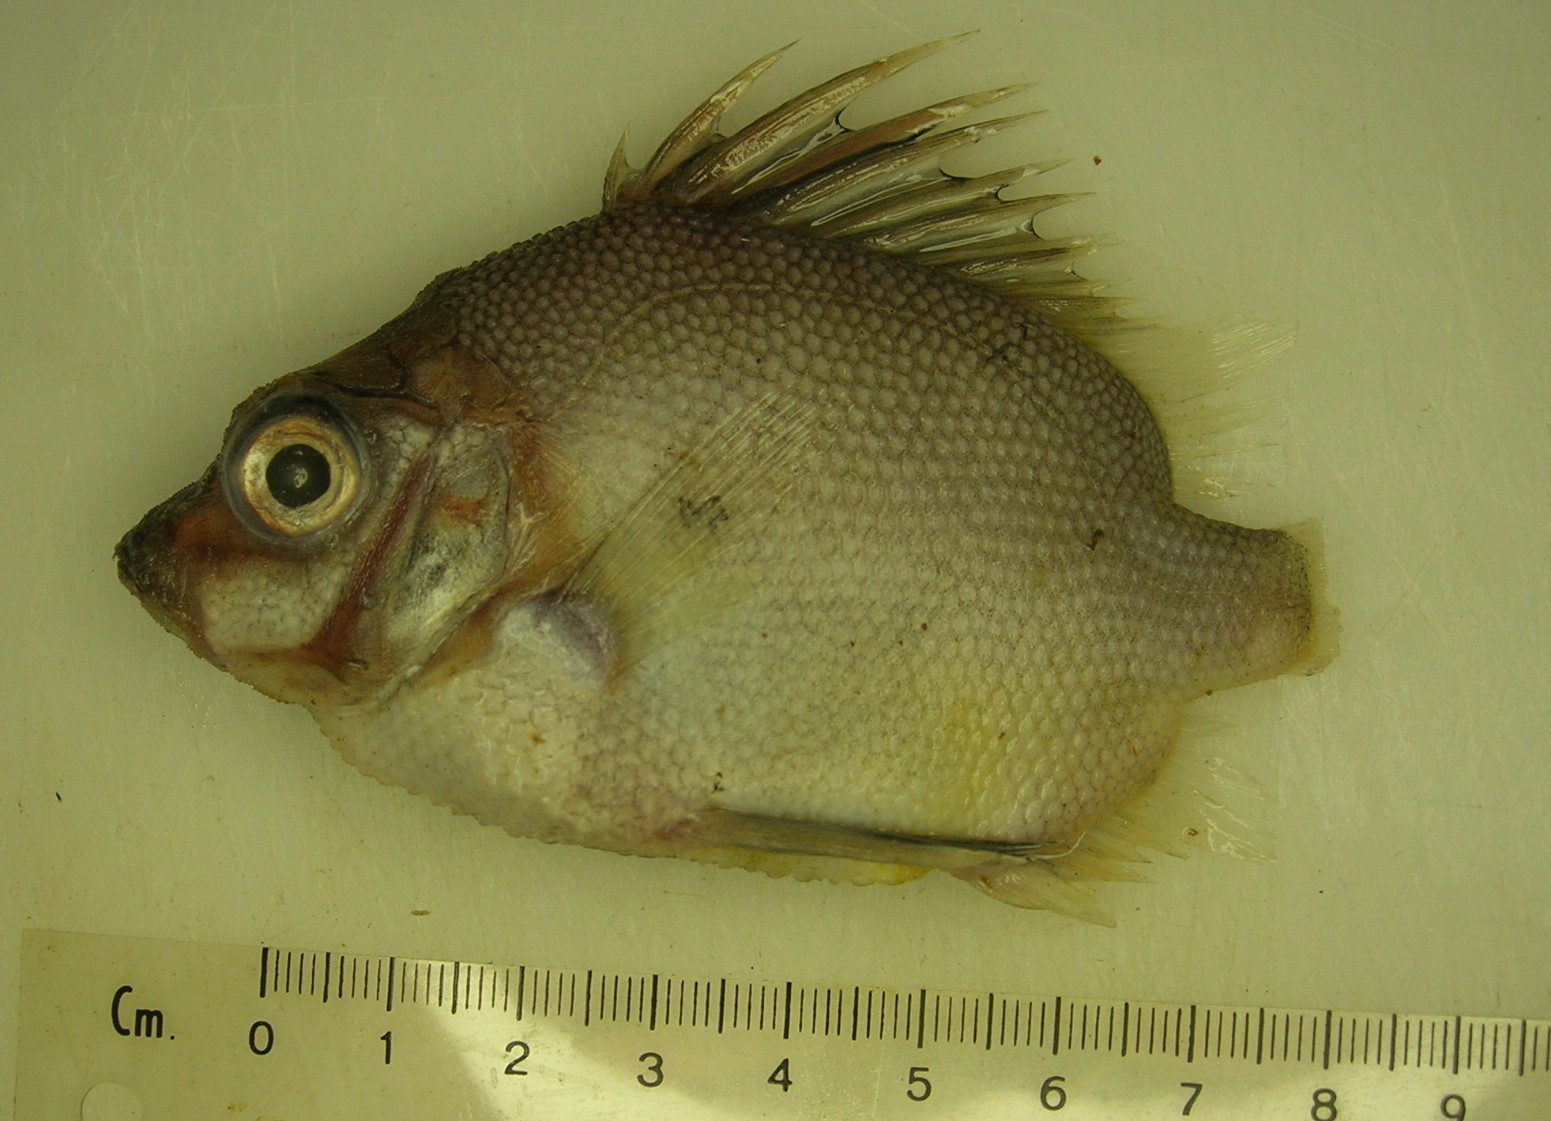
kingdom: Animalia
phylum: Chordata
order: Perciformes
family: Pentacerotidae
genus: Pentaceros
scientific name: Pentaceros capensis
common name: Cape armourhead
